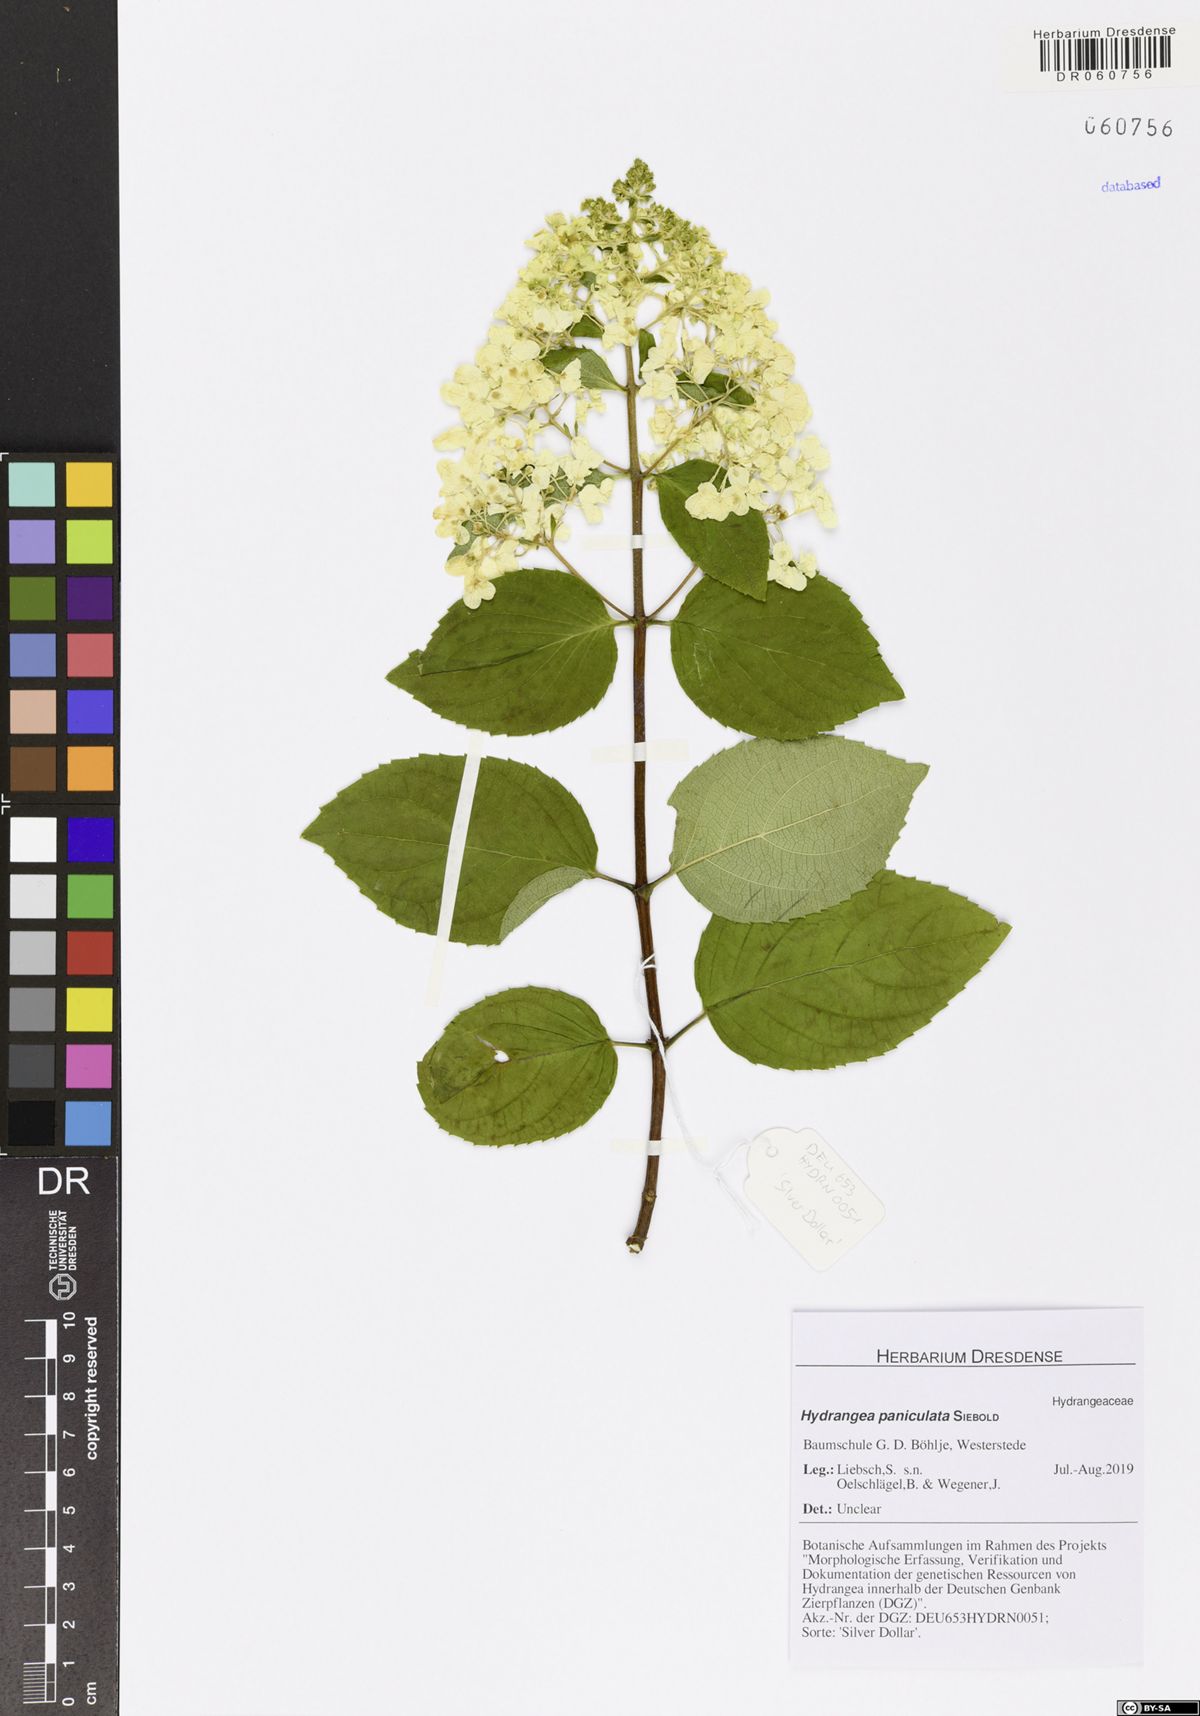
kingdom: Plantae
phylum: Tracheophyta
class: Magnoliopsida
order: Cornales
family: Hydrangeaceae
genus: Hydrangea
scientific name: Hydrangea paniculata
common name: Panicled hydrangea
